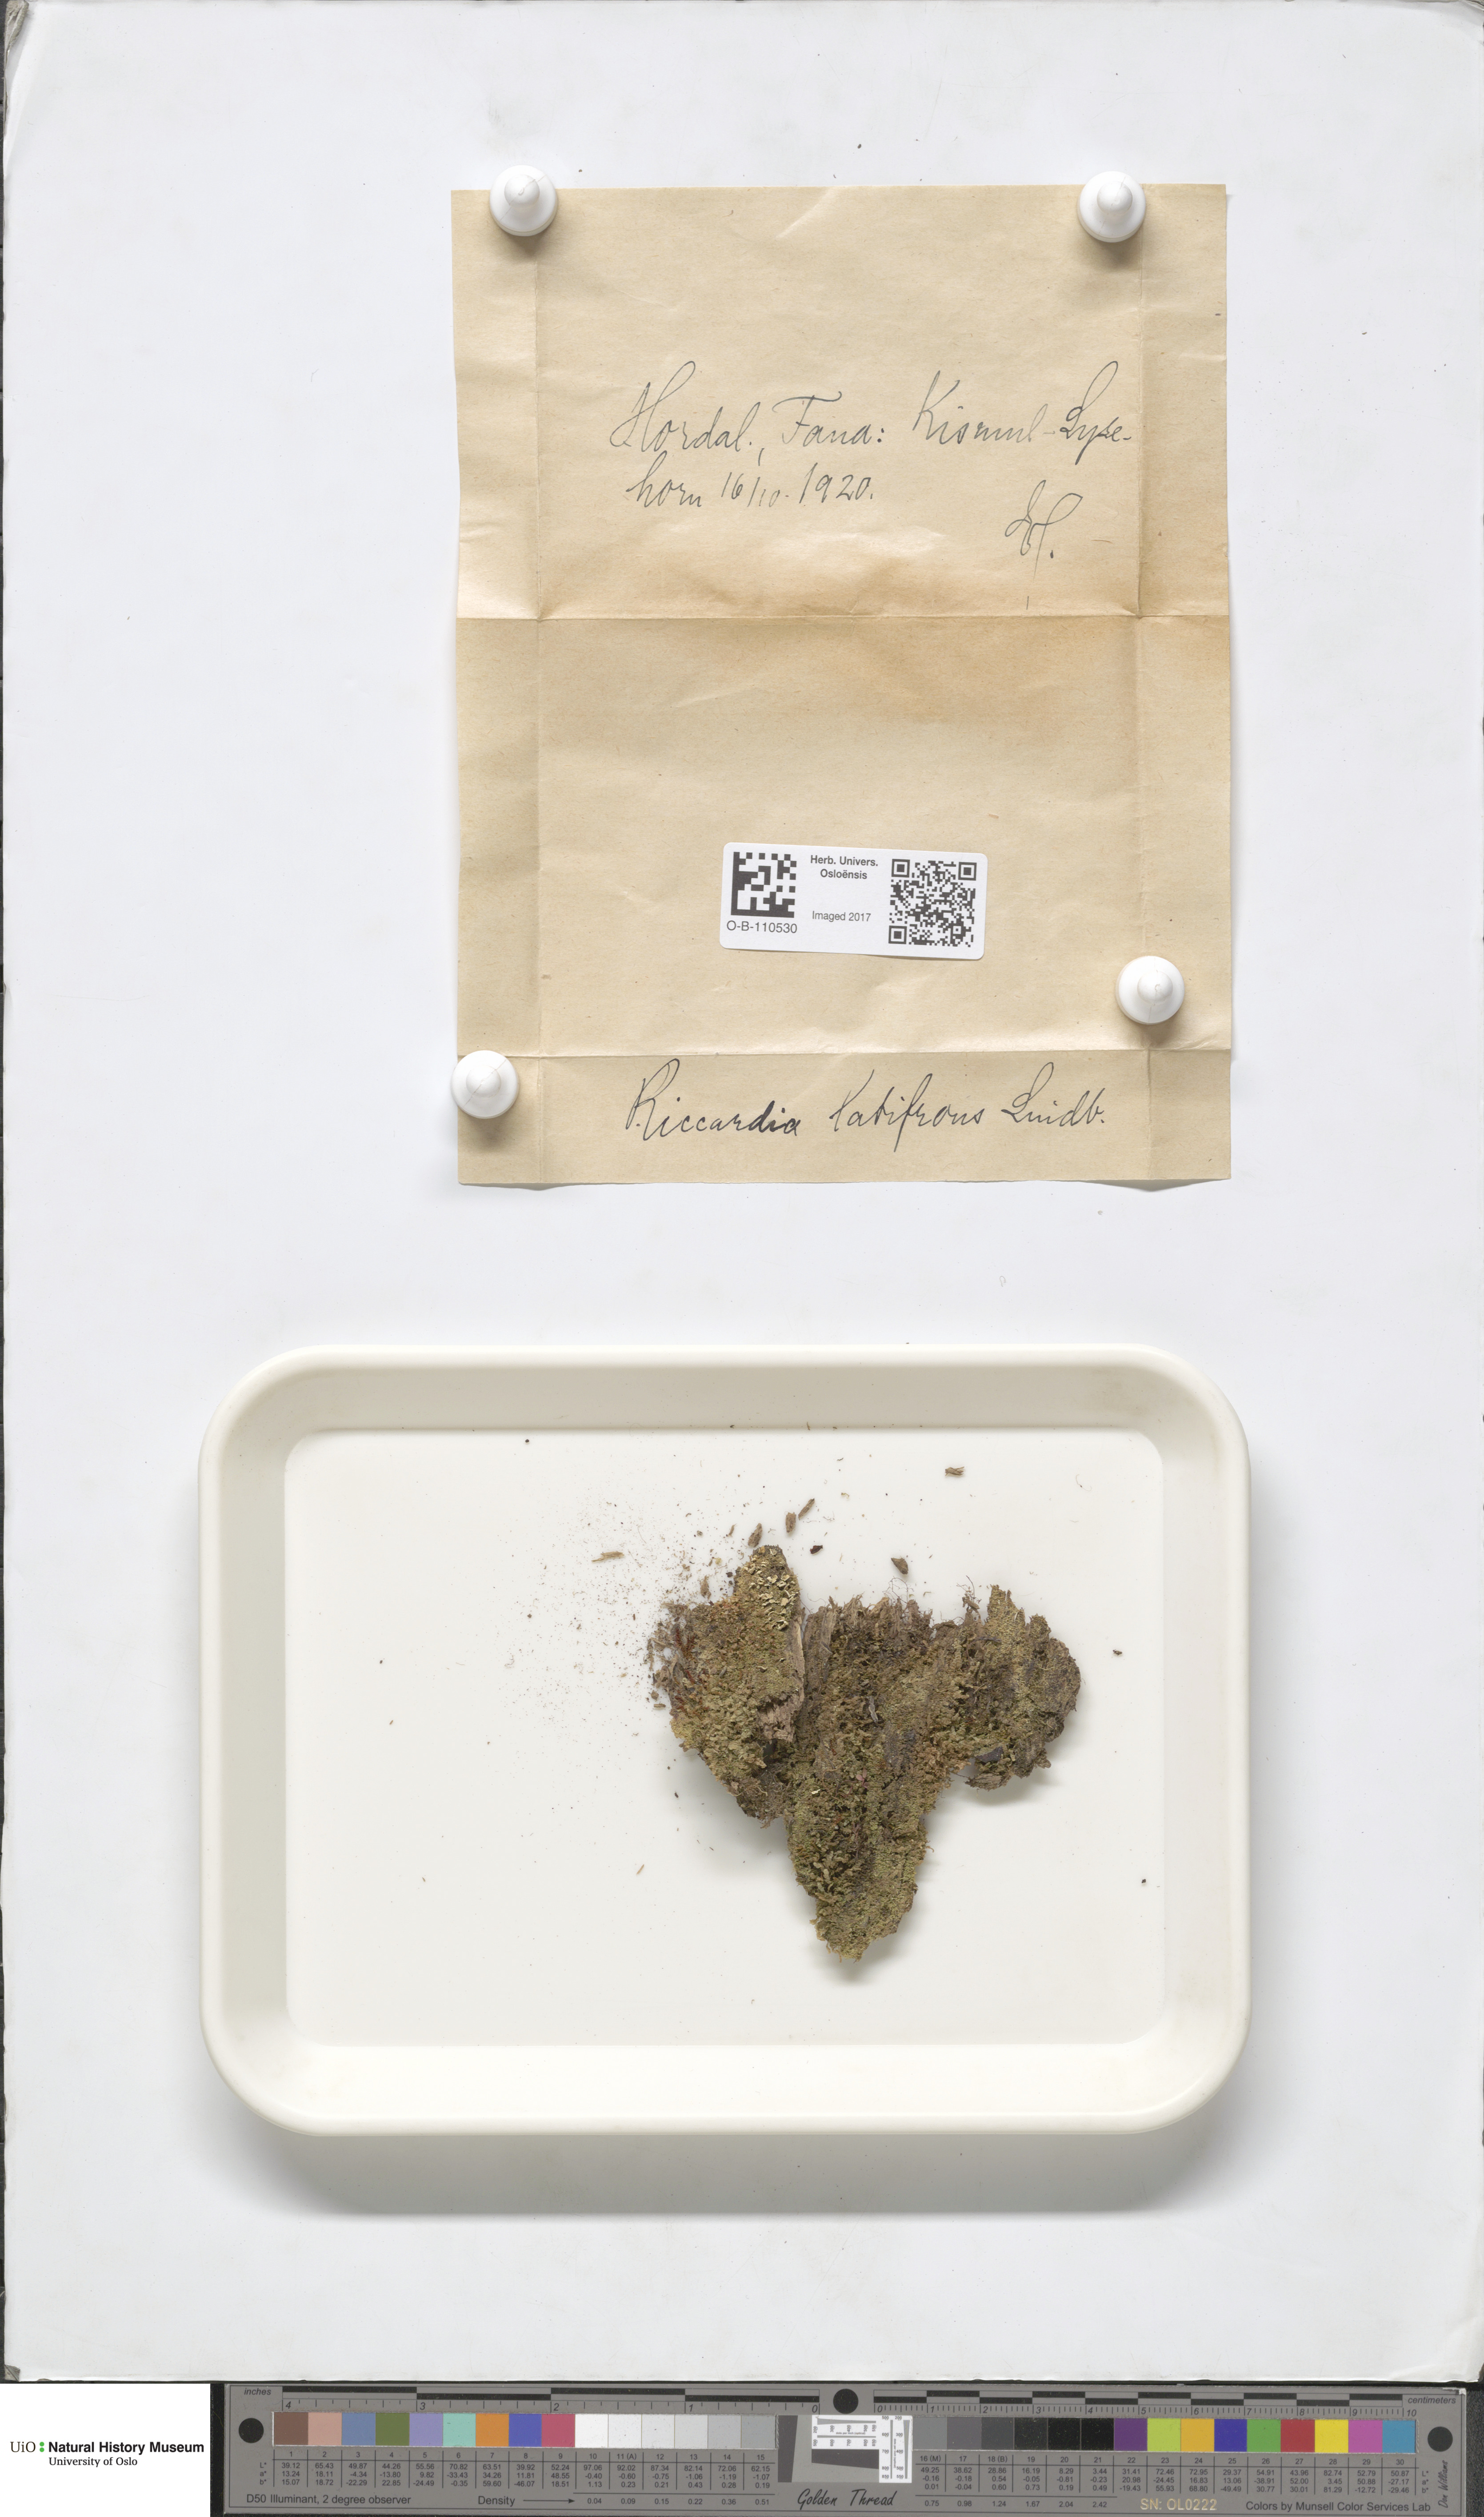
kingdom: Plantae
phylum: Marchantiophyta
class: Jungermanniopsida
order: Metzgeriales
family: Aneuraceae
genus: Riccardia
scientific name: Riccardia latifrons
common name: Bog germanderwort
